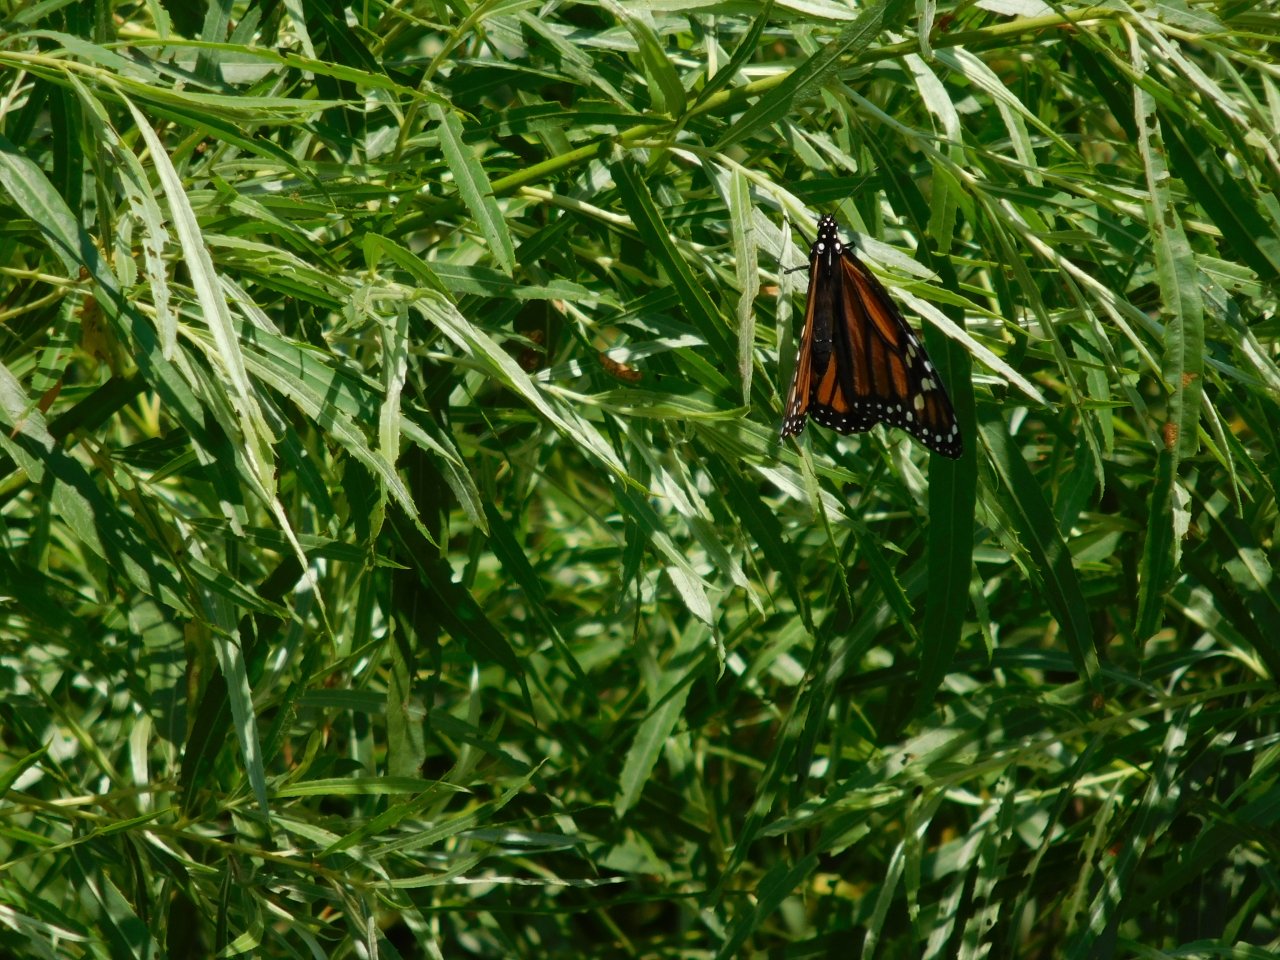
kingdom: Animalia
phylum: Arthropoda
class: Insecta
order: Lepidoptera
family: Nymphalidae
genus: Danaus
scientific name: Danaus plexippus
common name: Monarch
